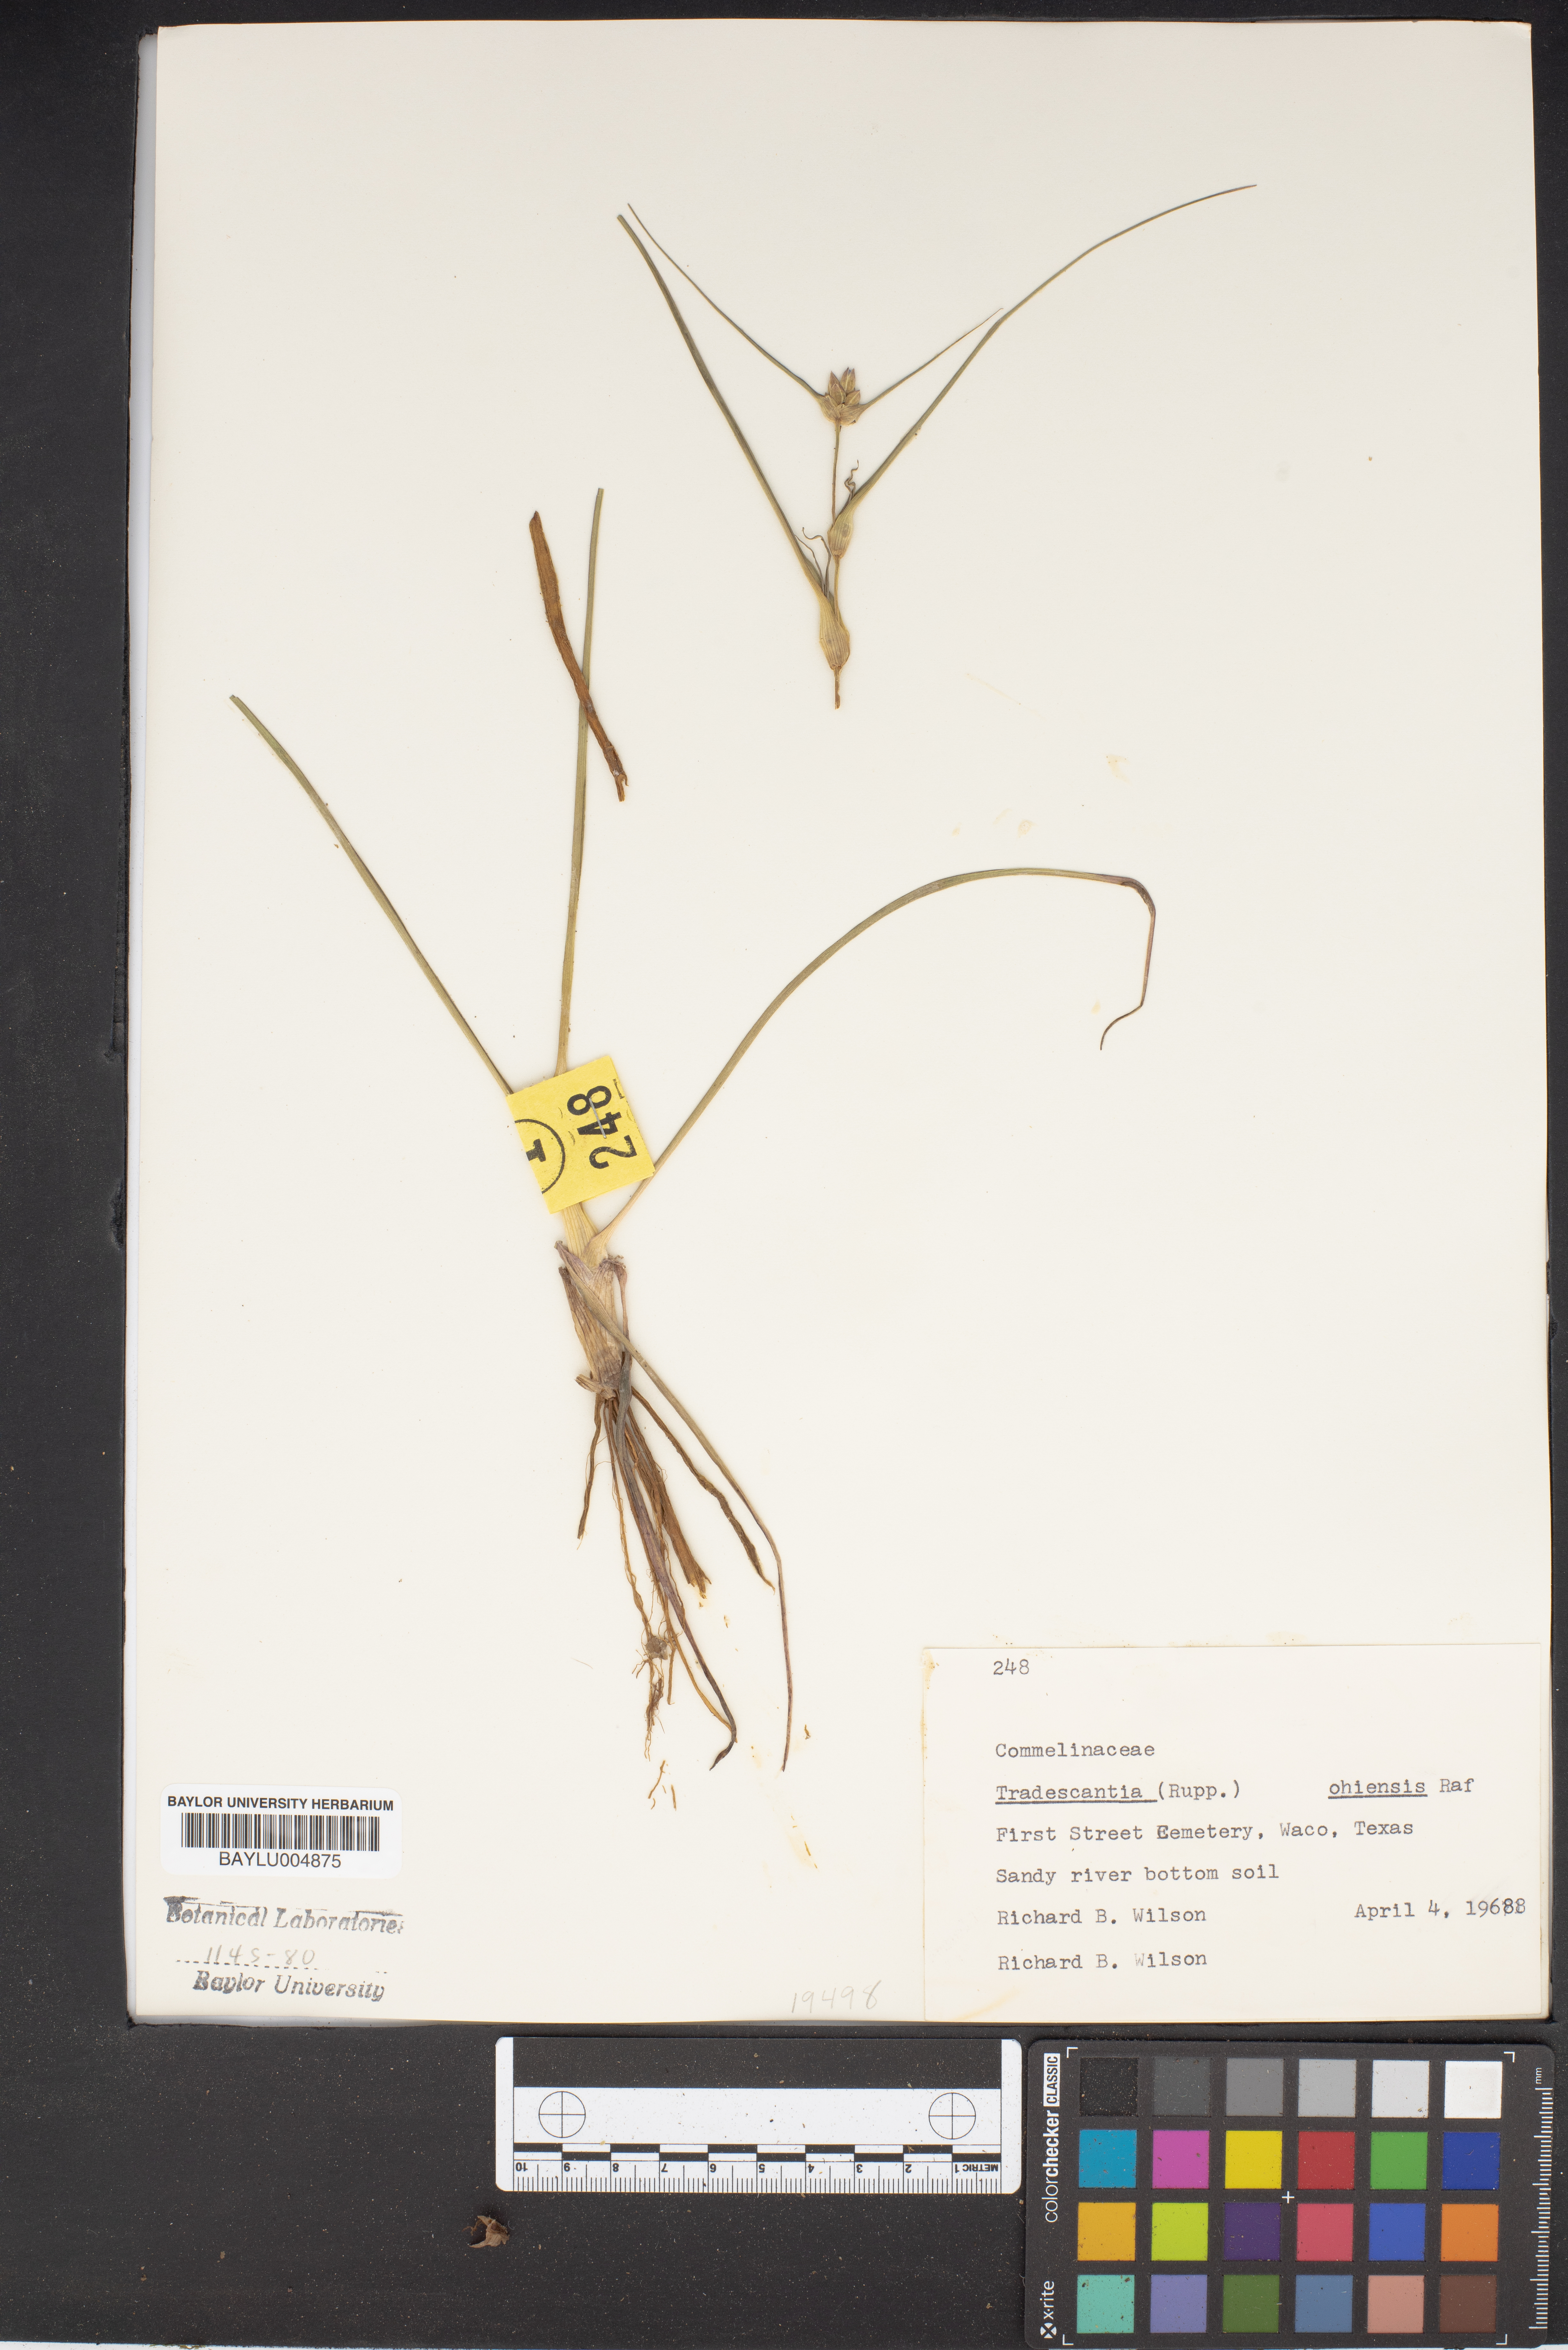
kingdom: Plantae
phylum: Tracheophyta
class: Liliopsida
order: Commelinales
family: Commelinaceae
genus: Tradescantia
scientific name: Tradescantia ohiensis
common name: Ohio spiderwort
